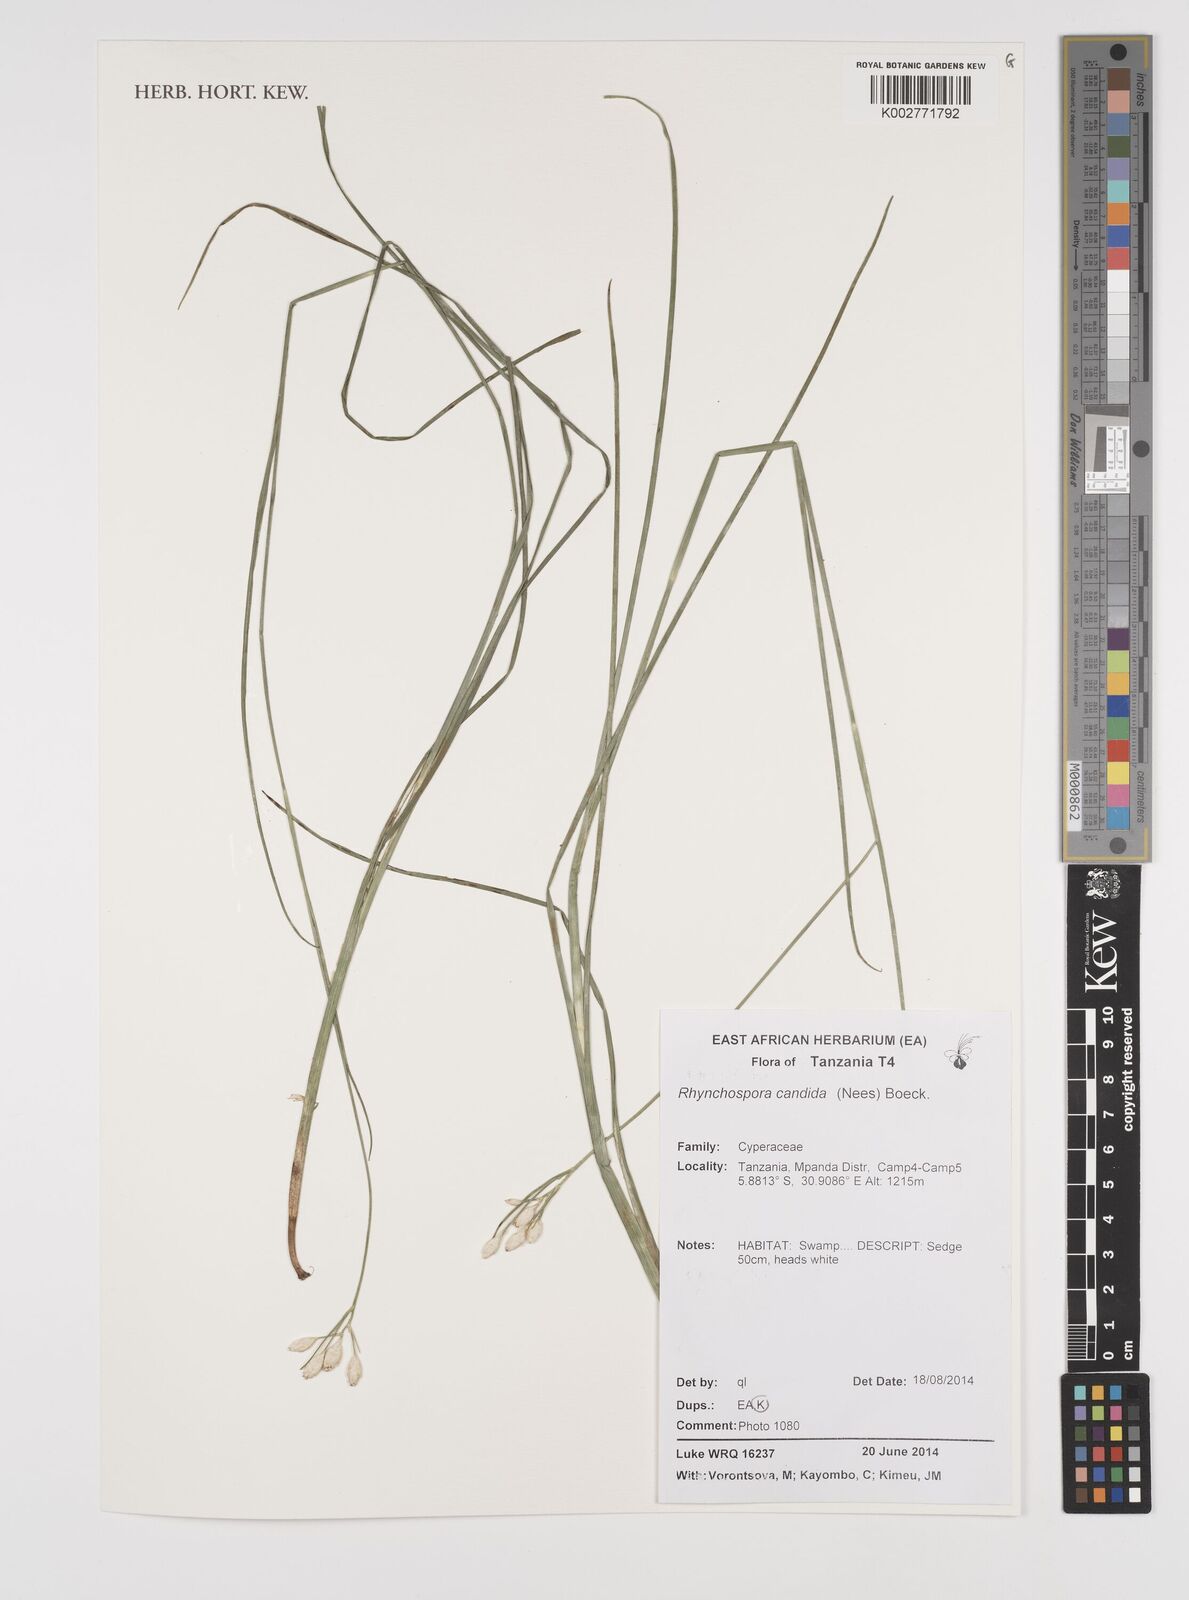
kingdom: Plantae
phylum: Tracheophyta
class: Liliopsida
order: Poales
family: Cyperaceae
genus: Rhynchospora
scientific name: Rhynchospora candida
